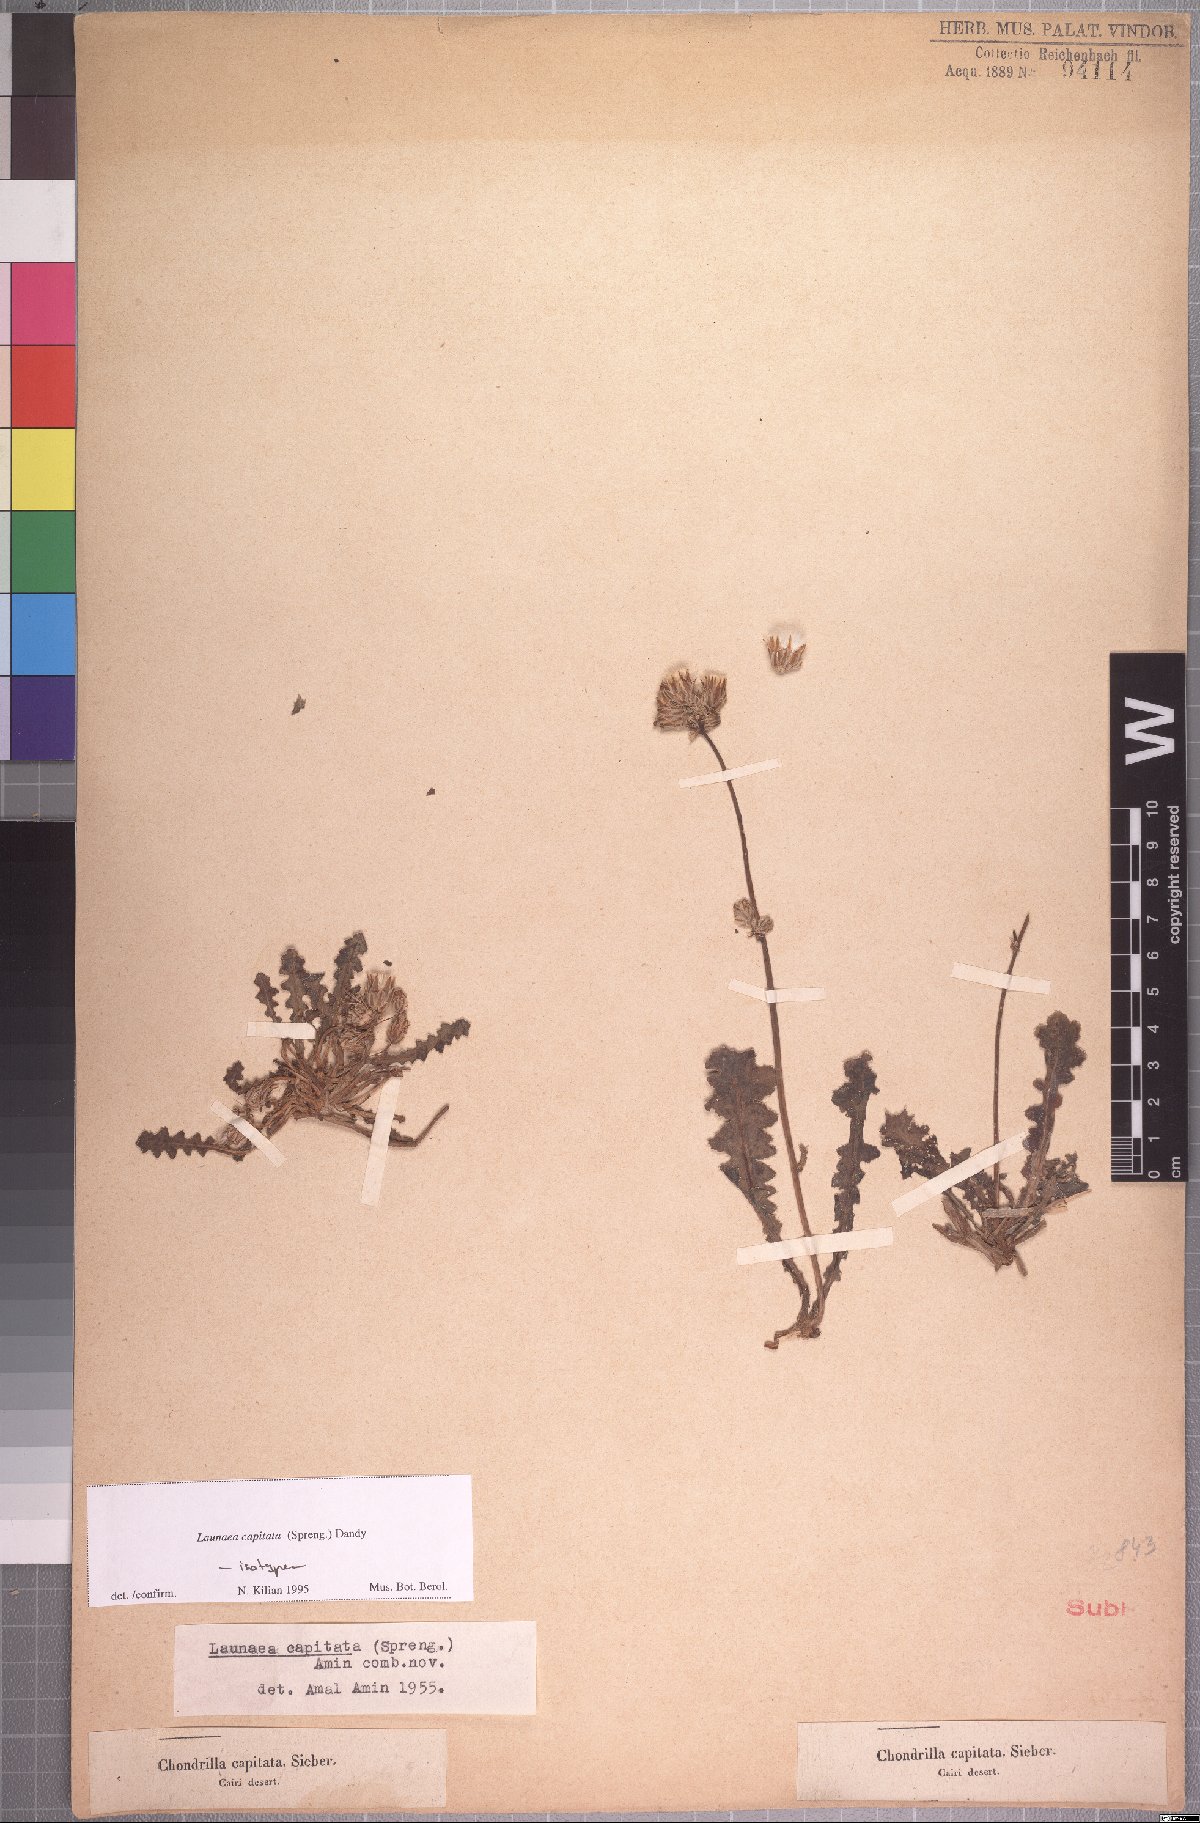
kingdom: Plantae
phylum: Tracheophyta
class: Magnoliopsida
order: Asterales
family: Asteraceae
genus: Launaea
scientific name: Launaea capitata
